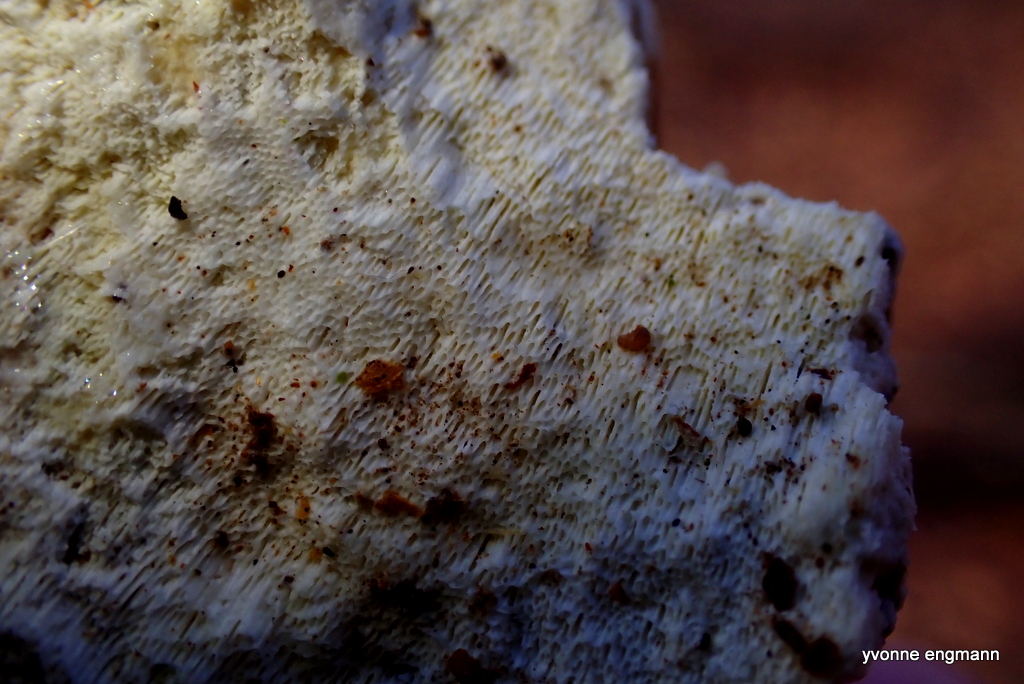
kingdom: Fungi
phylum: Basidiomycota
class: Agaricomycetes
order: Polyporales
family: Fomitopsidaceae
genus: Daedalea
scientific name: Daedalea xantha
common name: gul sejporesvamp
